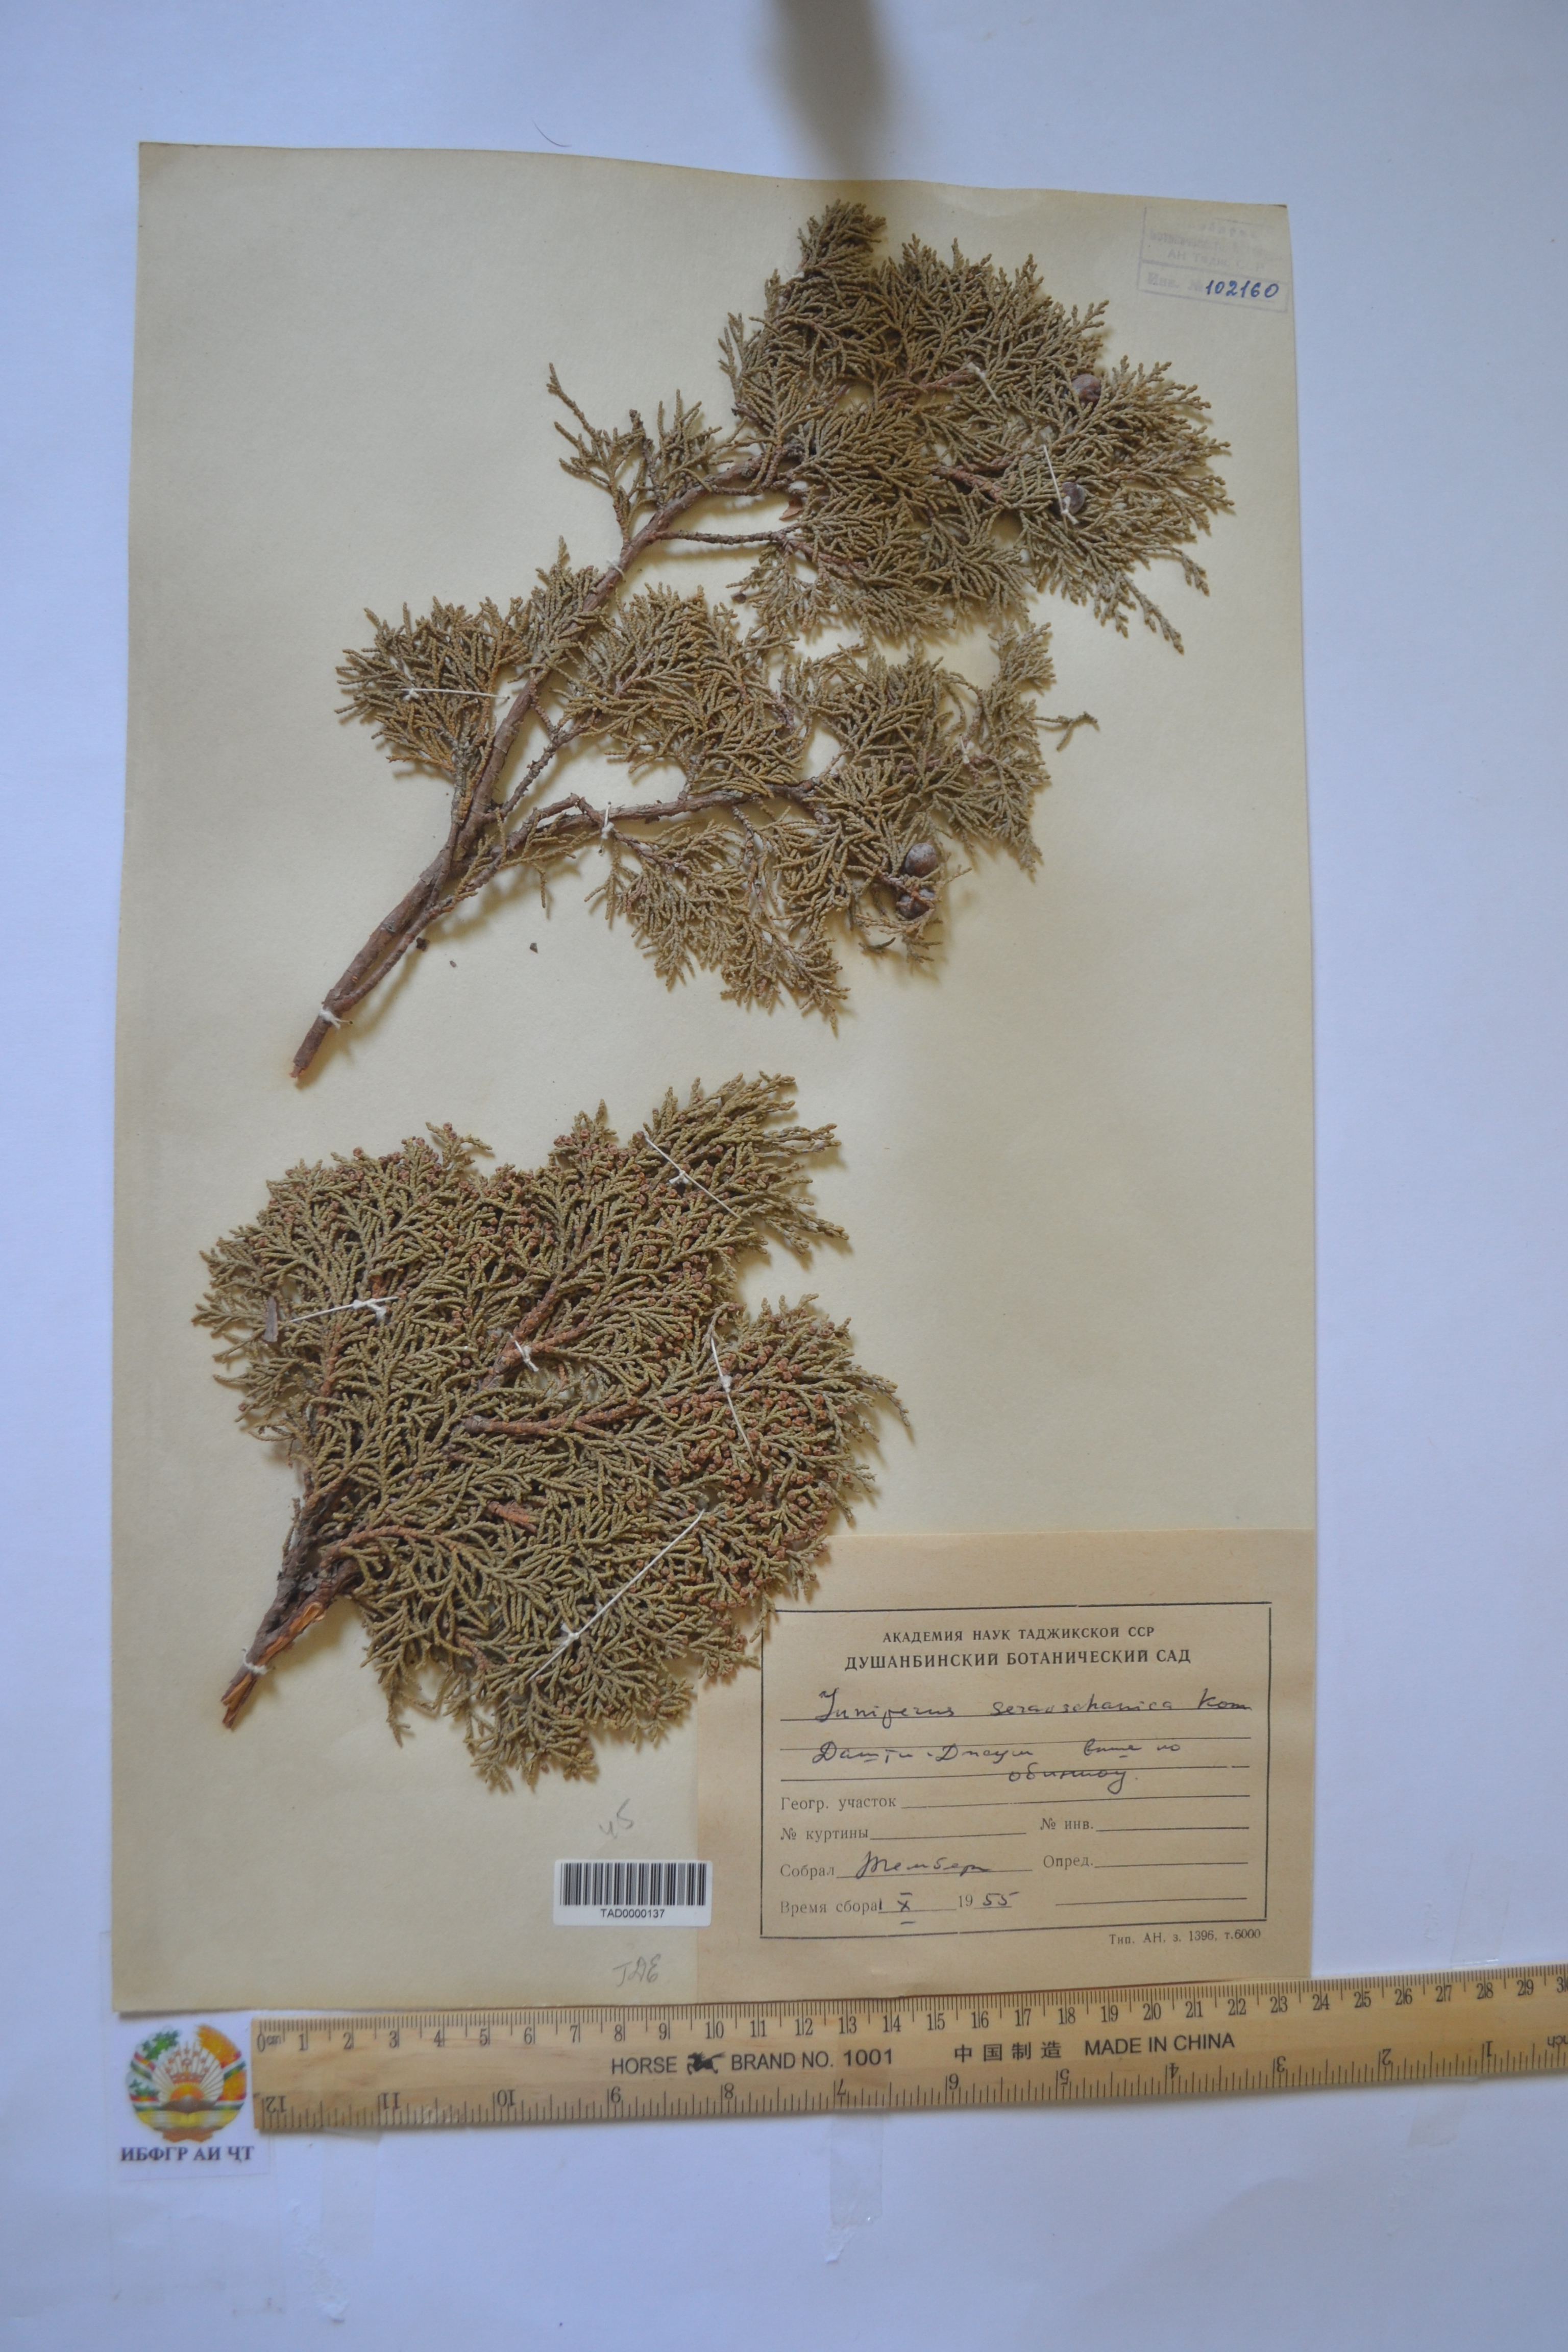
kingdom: Plantae
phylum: Tracheophyta
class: Pinopsida
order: Pinales
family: Cupressaceae
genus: Juniperus
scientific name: Juniperus excelsa
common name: Crimean juniper
